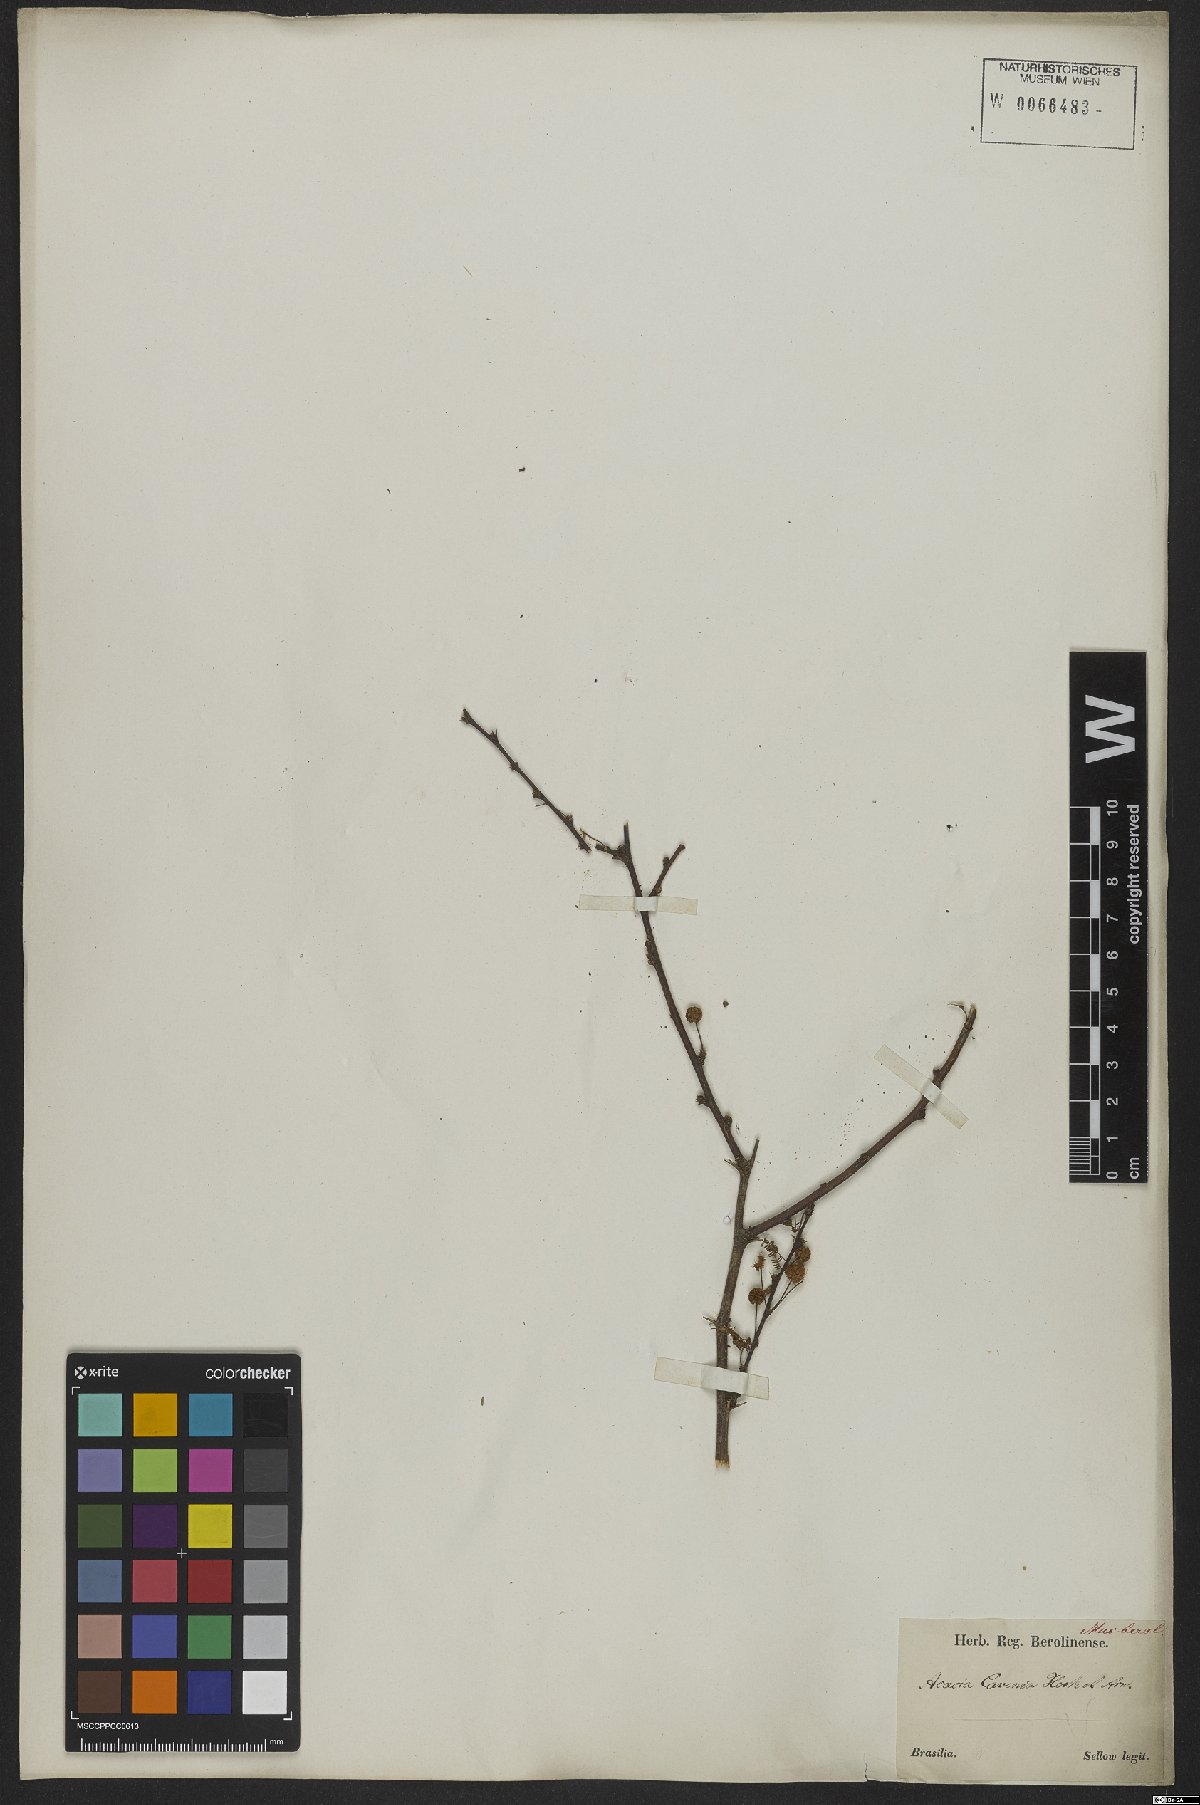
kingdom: Plantae
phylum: Tracheophyta
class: Magnoliopsida
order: Fabales
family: Fabaceae
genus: Vachellia
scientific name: Vachellia caven
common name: Roman cassie
